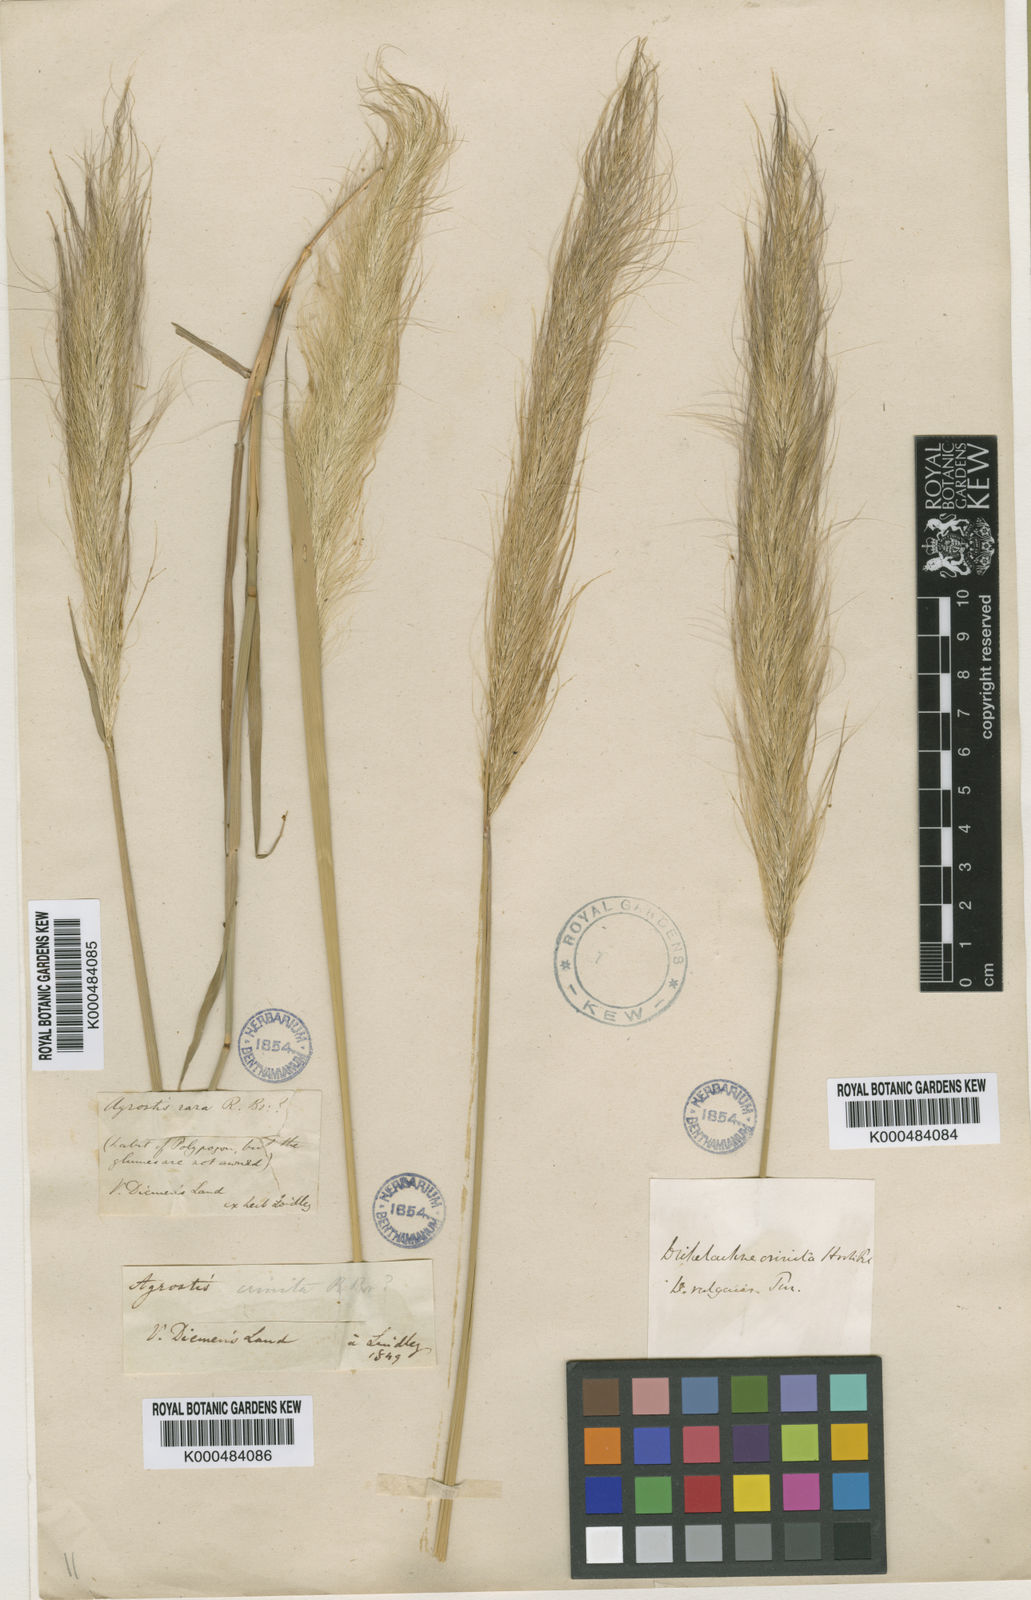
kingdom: Plantae
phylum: Tracheophyta
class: Liliopsida
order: Poales
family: Poaceae
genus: Dichelachne
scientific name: Dichelachne crinita
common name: Clovenfoot plumegrass
